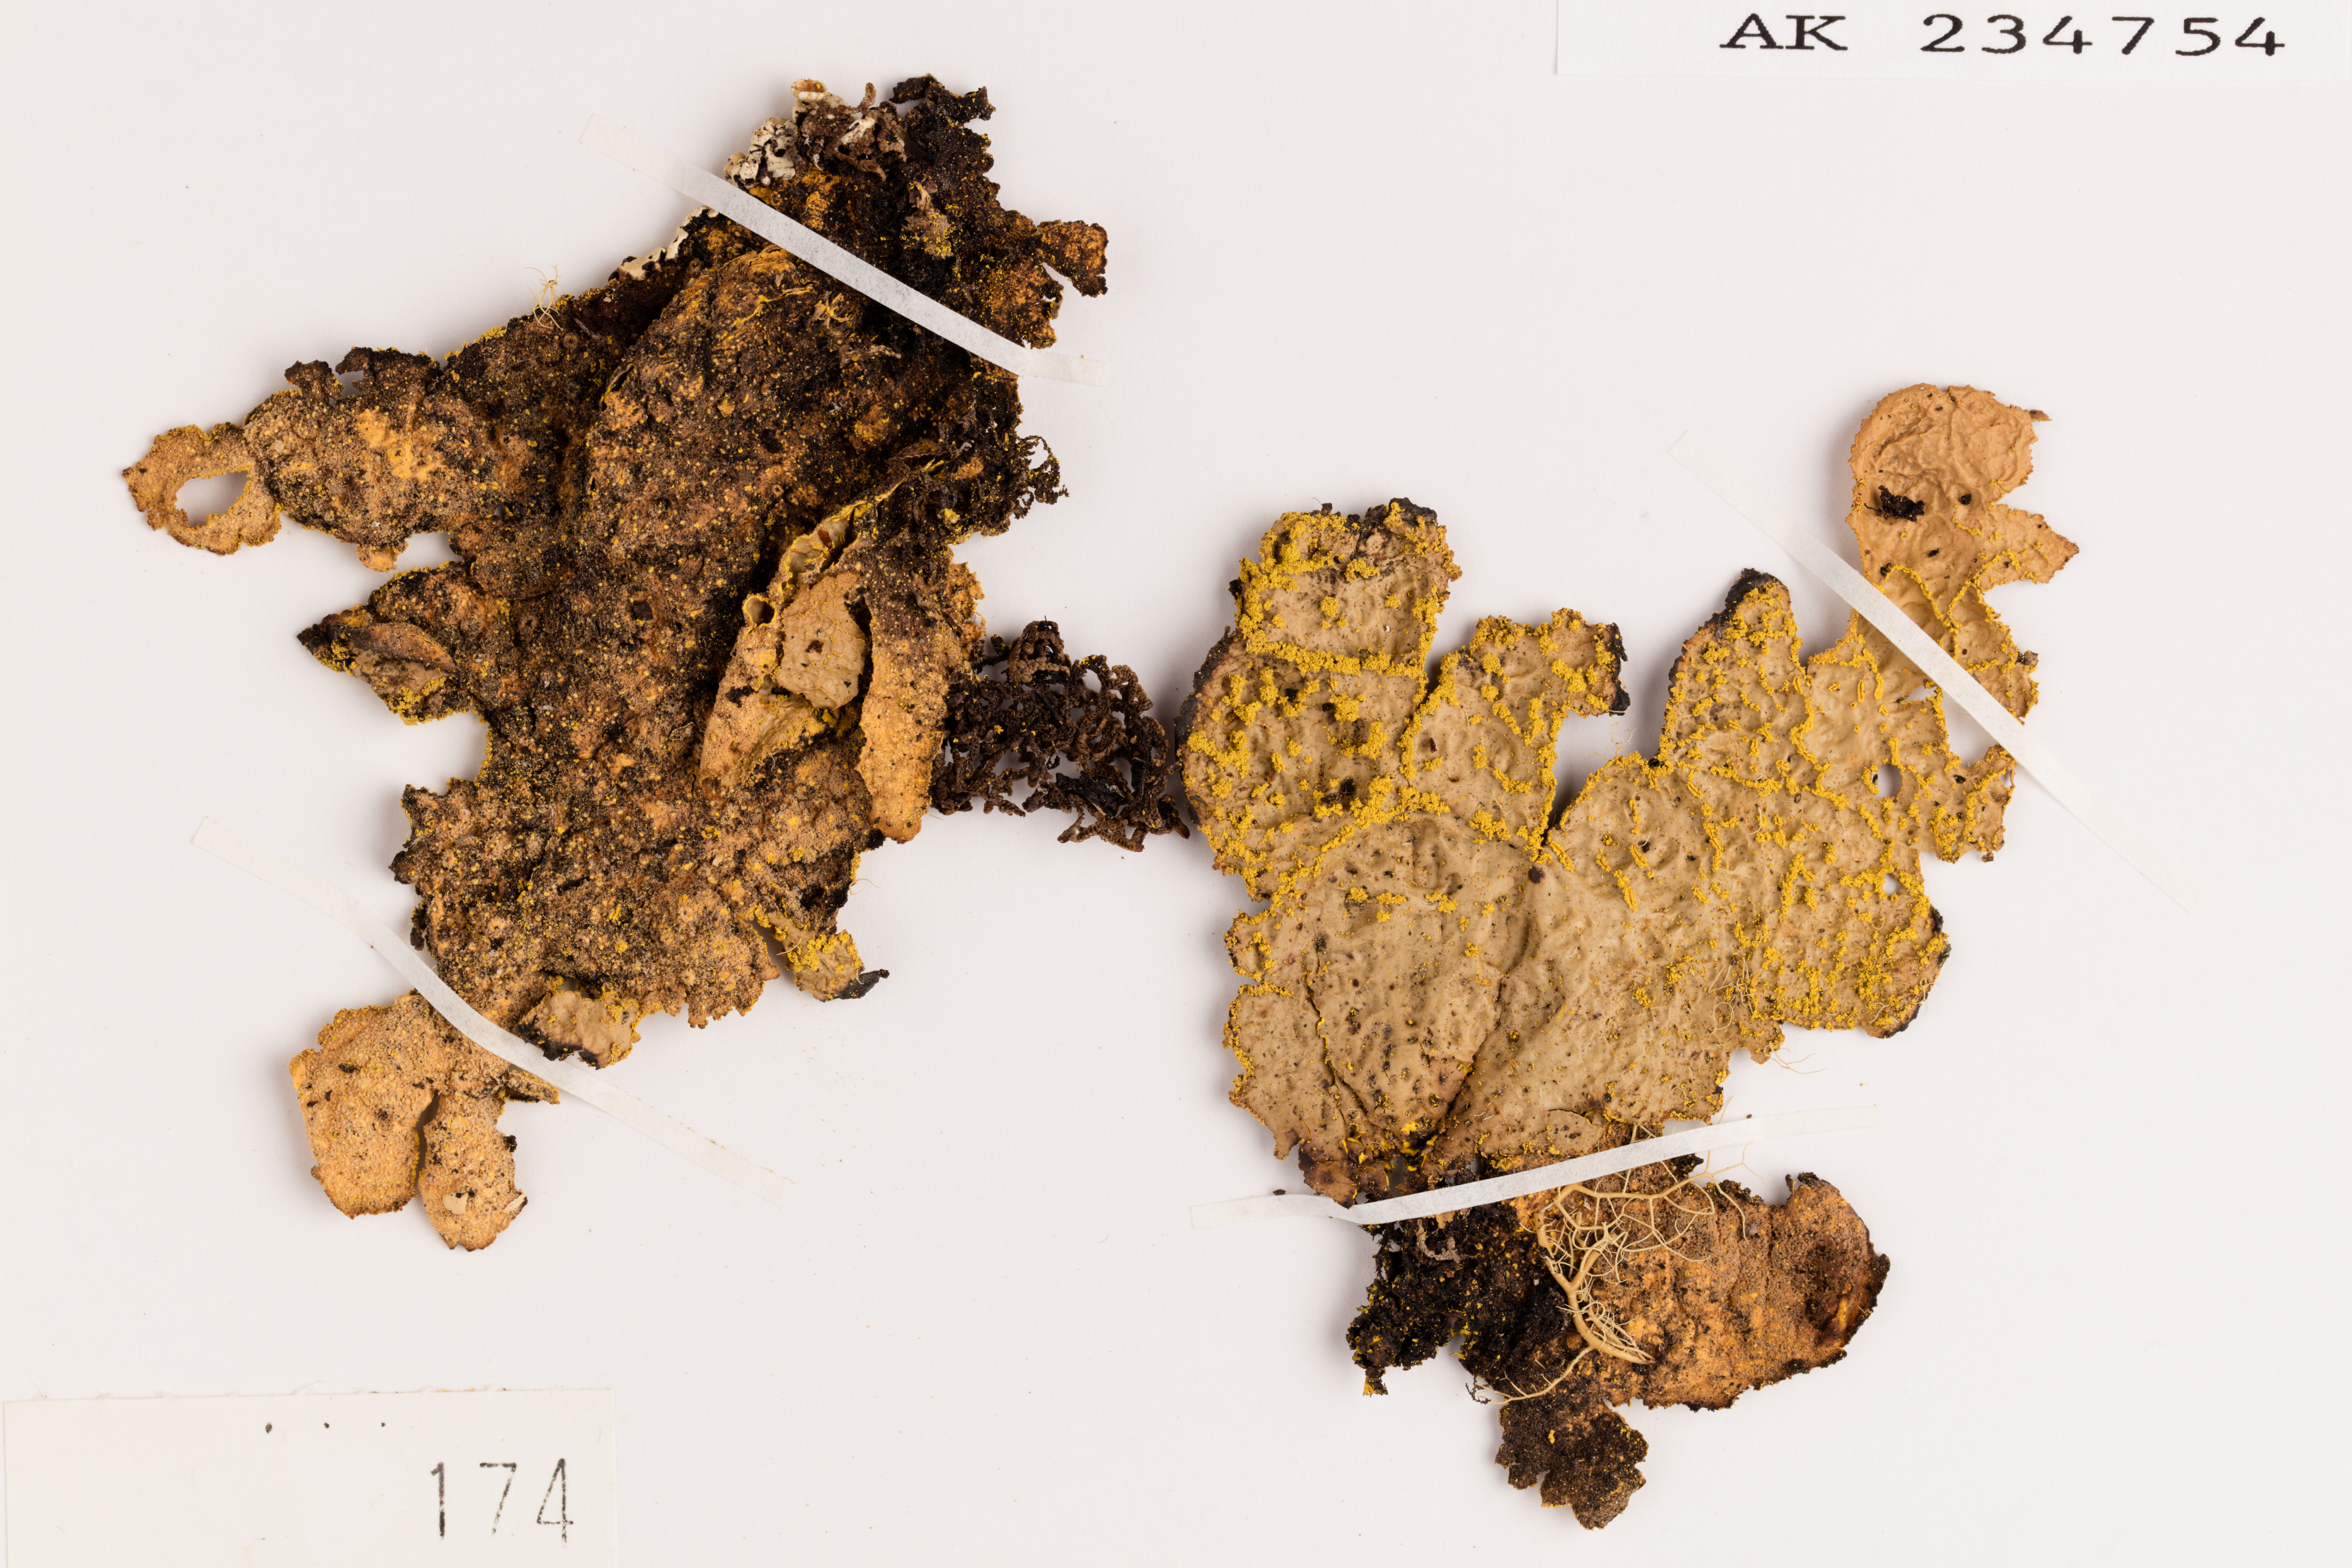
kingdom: Fungi
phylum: Ascomycota
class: Lecanoromycetes
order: Peltigerales
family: Lobariaceae
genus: Yarrumia
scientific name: Yarrumia colensoi
